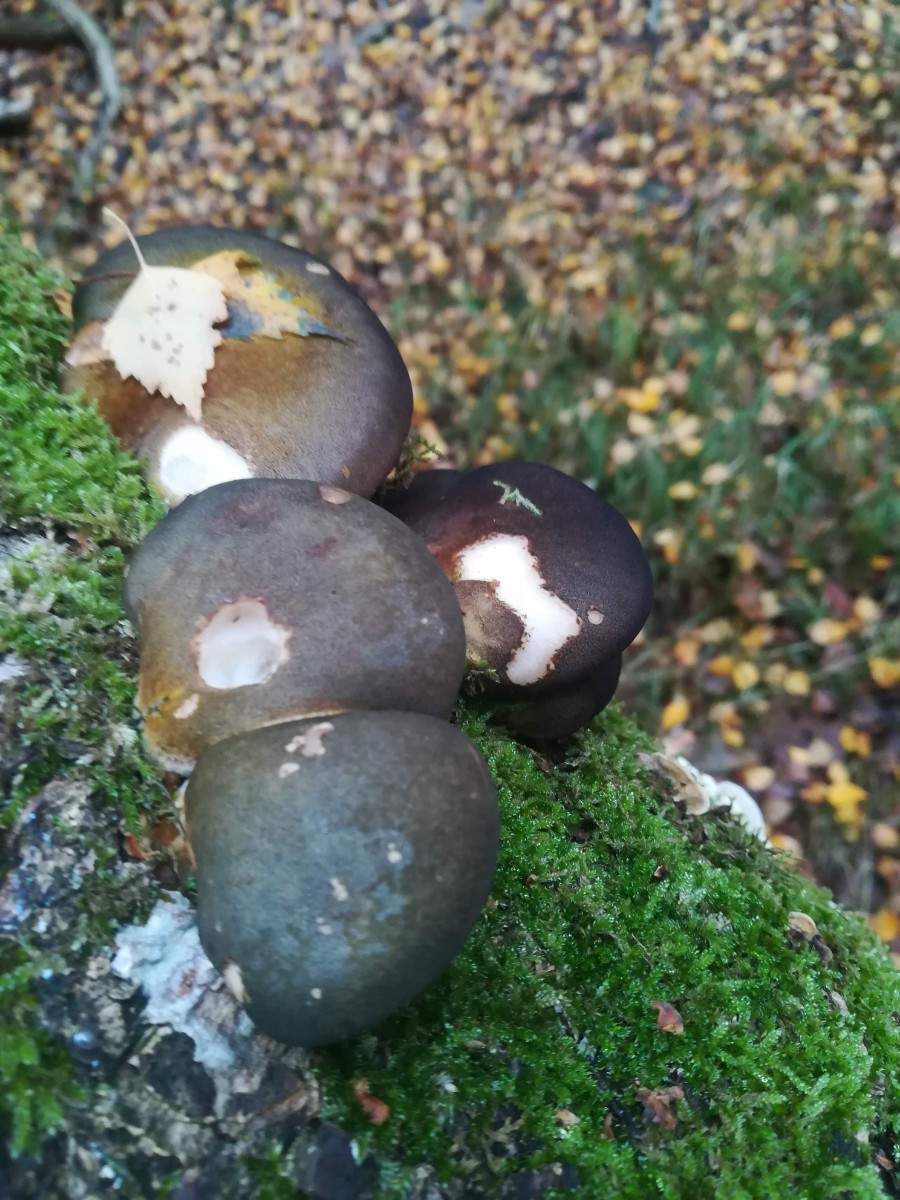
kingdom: Fungi
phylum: Basidiomycota
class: Agaricomycetes
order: Agaricales
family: Sarcomyxaceae
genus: Sarcomyxa
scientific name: Sarcomyxa serotina
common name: gummihat
